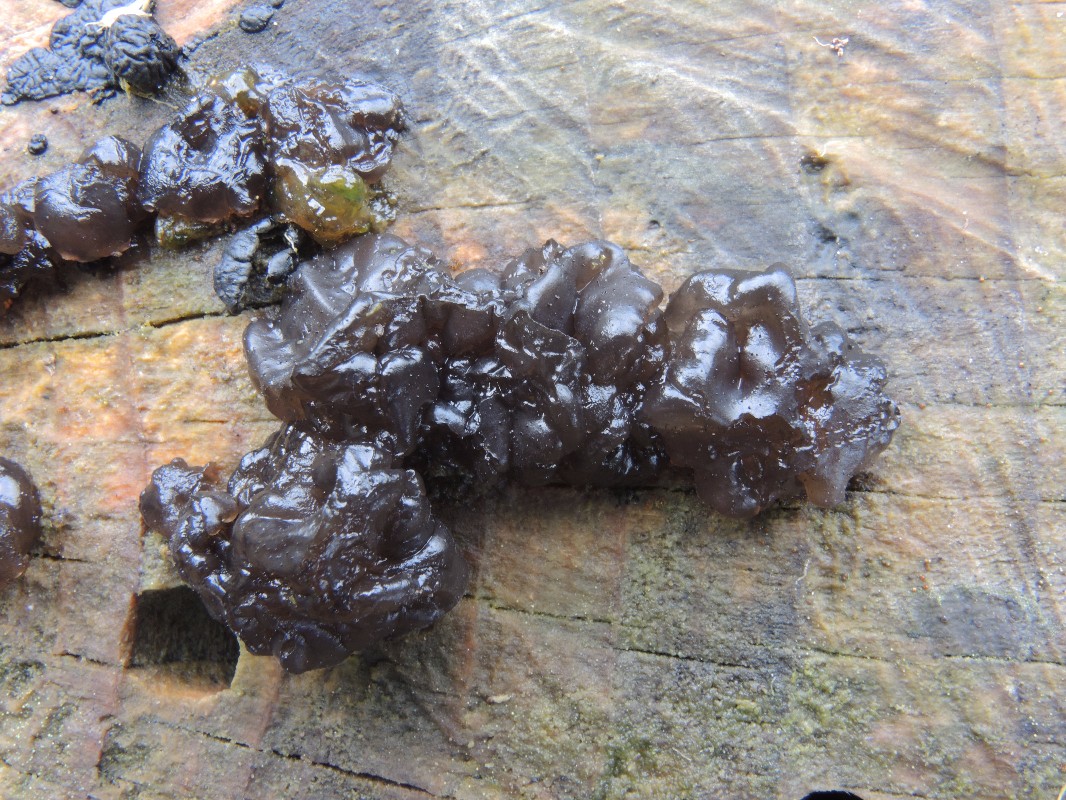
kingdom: Fungi
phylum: Basidiomycota
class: Agaricomycetes
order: Auriculariales
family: Auriculariaceae
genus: Exidia
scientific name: Exidia pithya
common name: gran-bævretop
